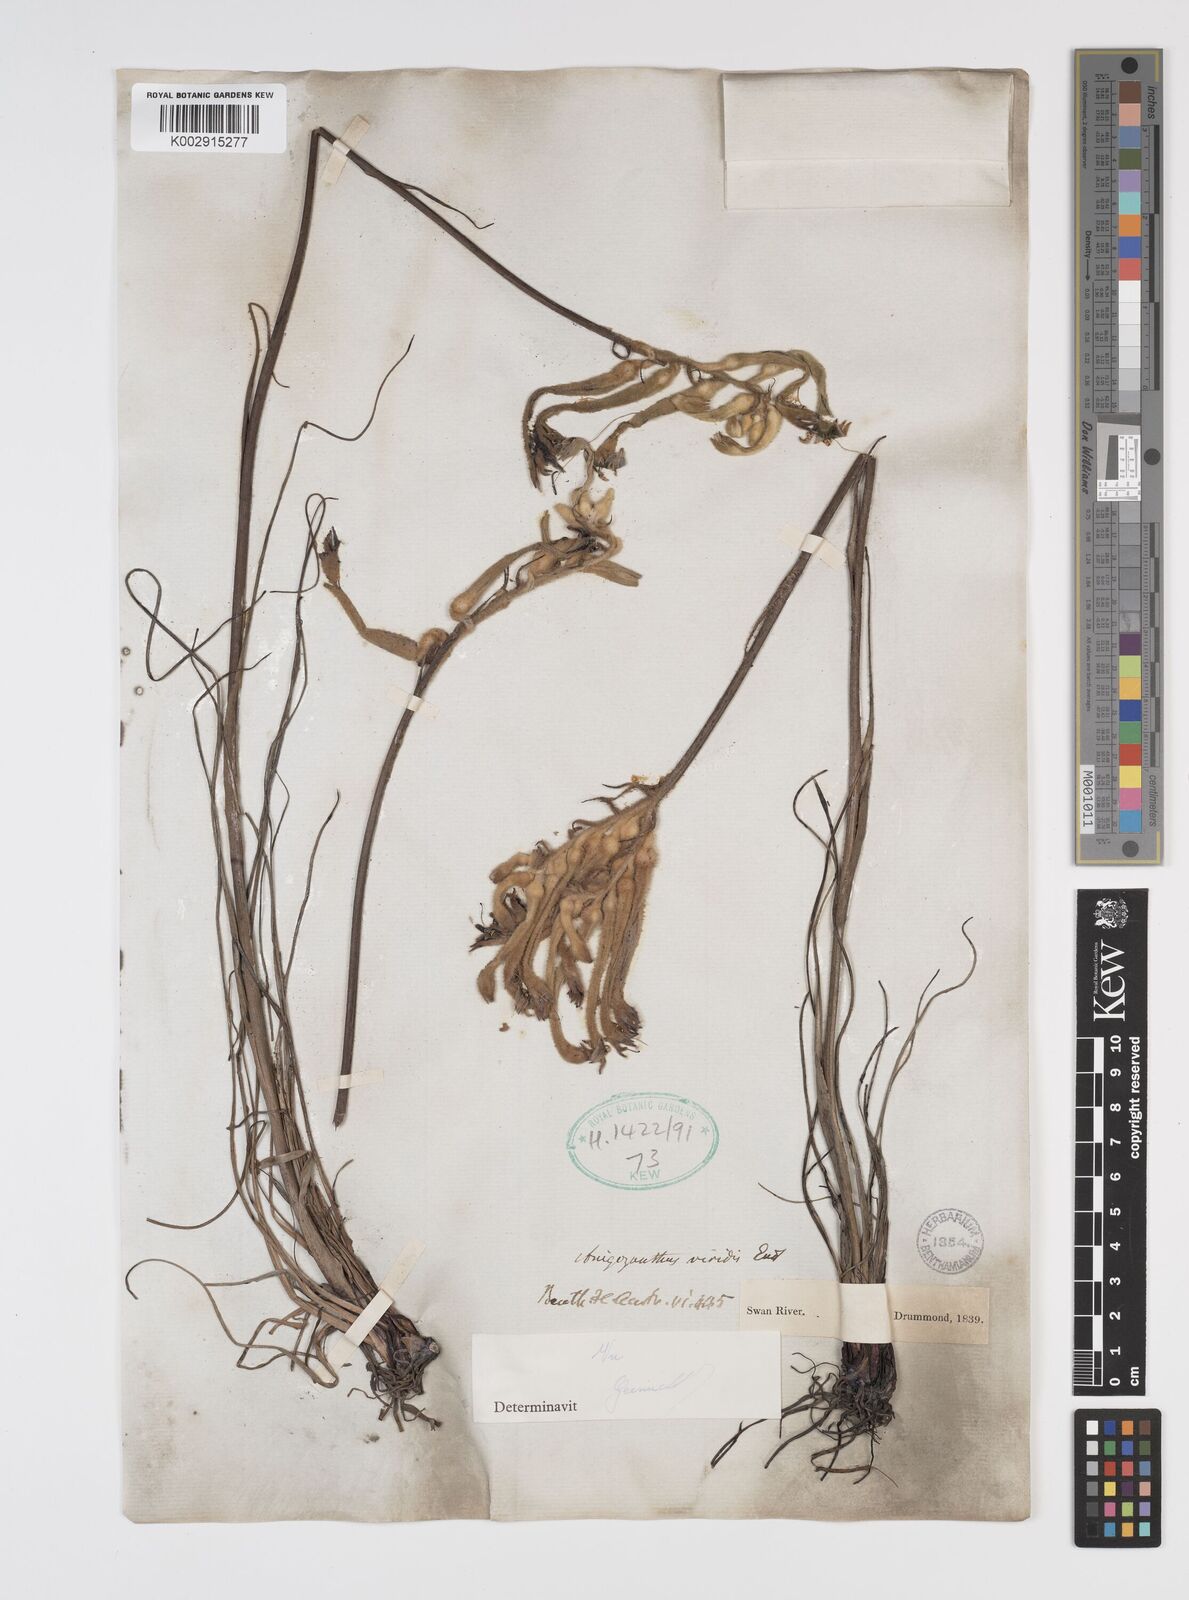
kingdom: Plantae
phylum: Tracheophyta
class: Liliopsida
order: Commelinales
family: Haemodoraceae
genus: Anigozanthos
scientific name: Anigozanthos viridis
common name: Green kangaroo-paw
